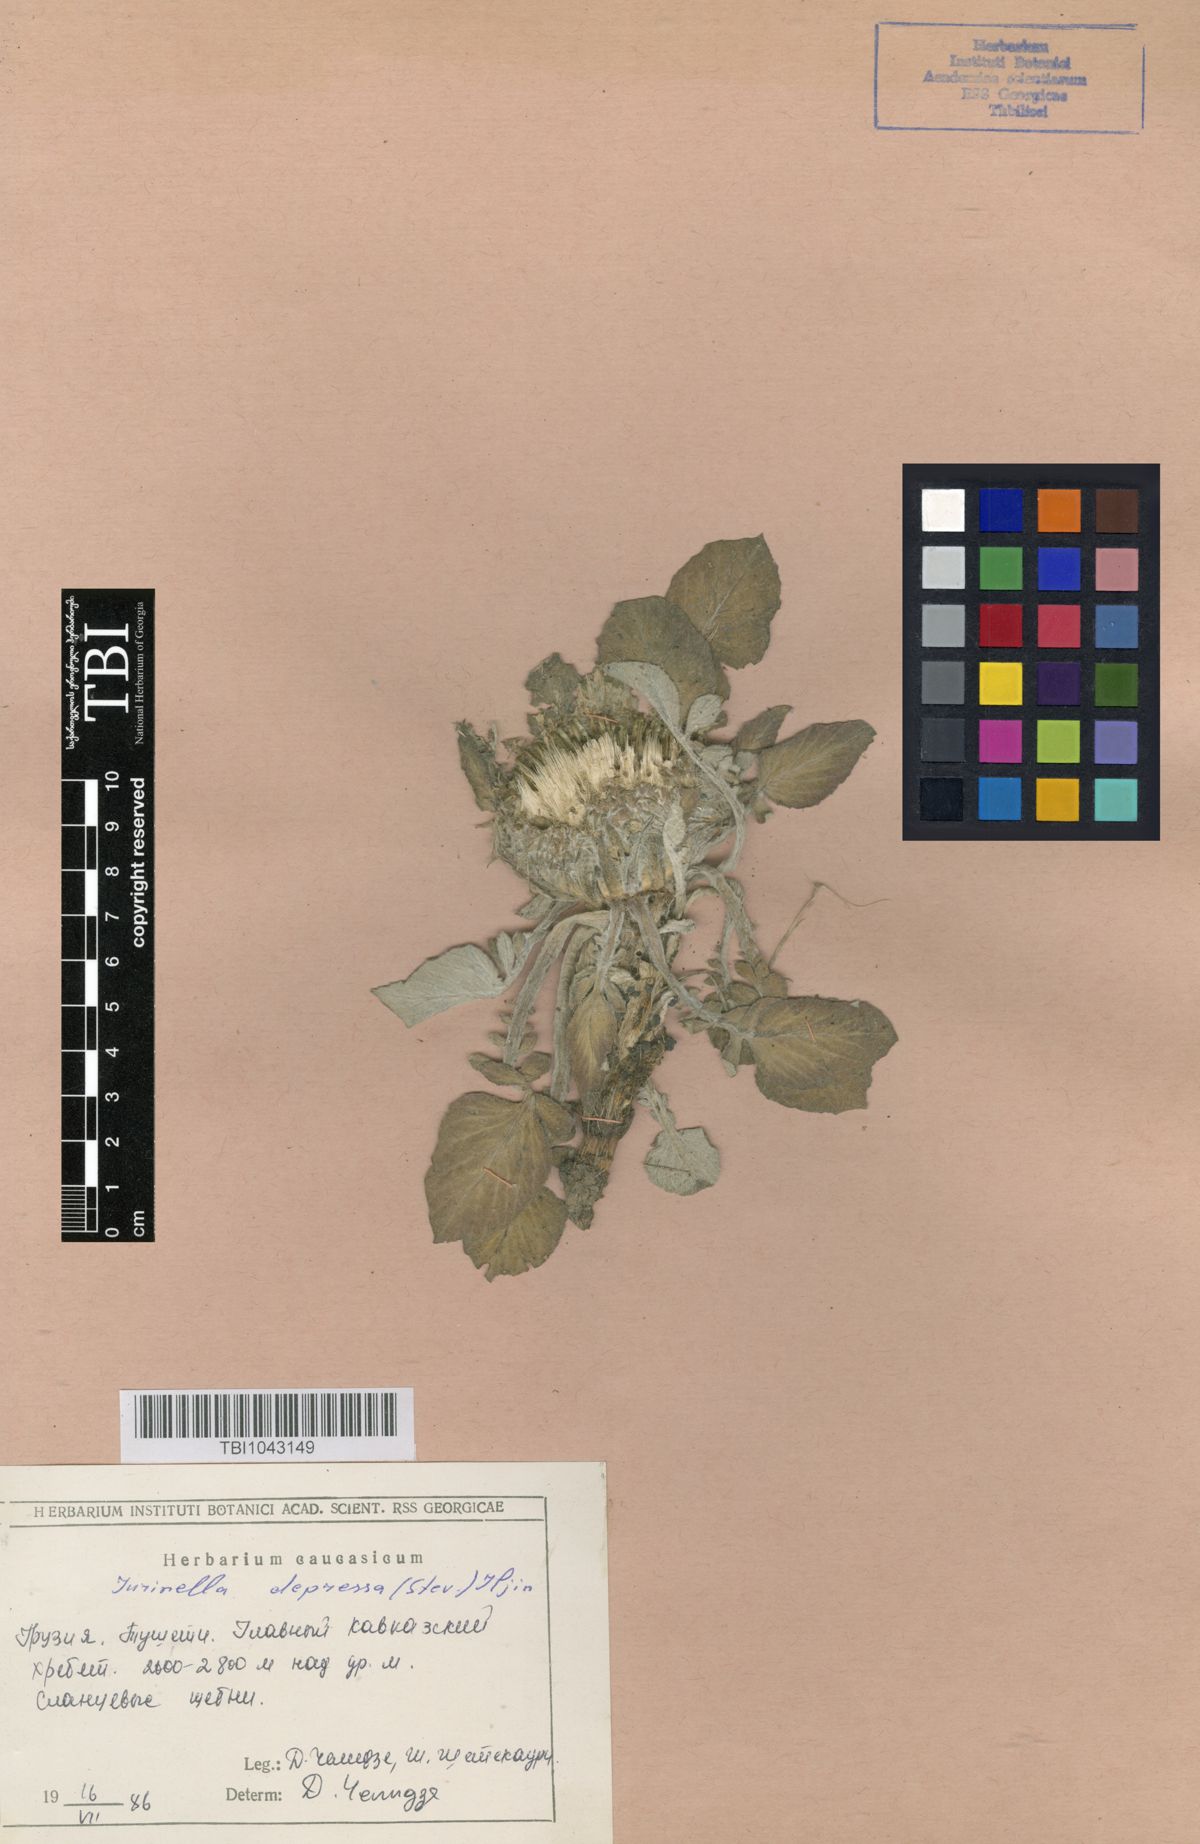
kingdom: Plantae
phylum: Tracheophyta
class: Magnoliopsida
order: Asterales
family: Asteraceae
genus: Jurinea
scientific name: Jurinea moschus
